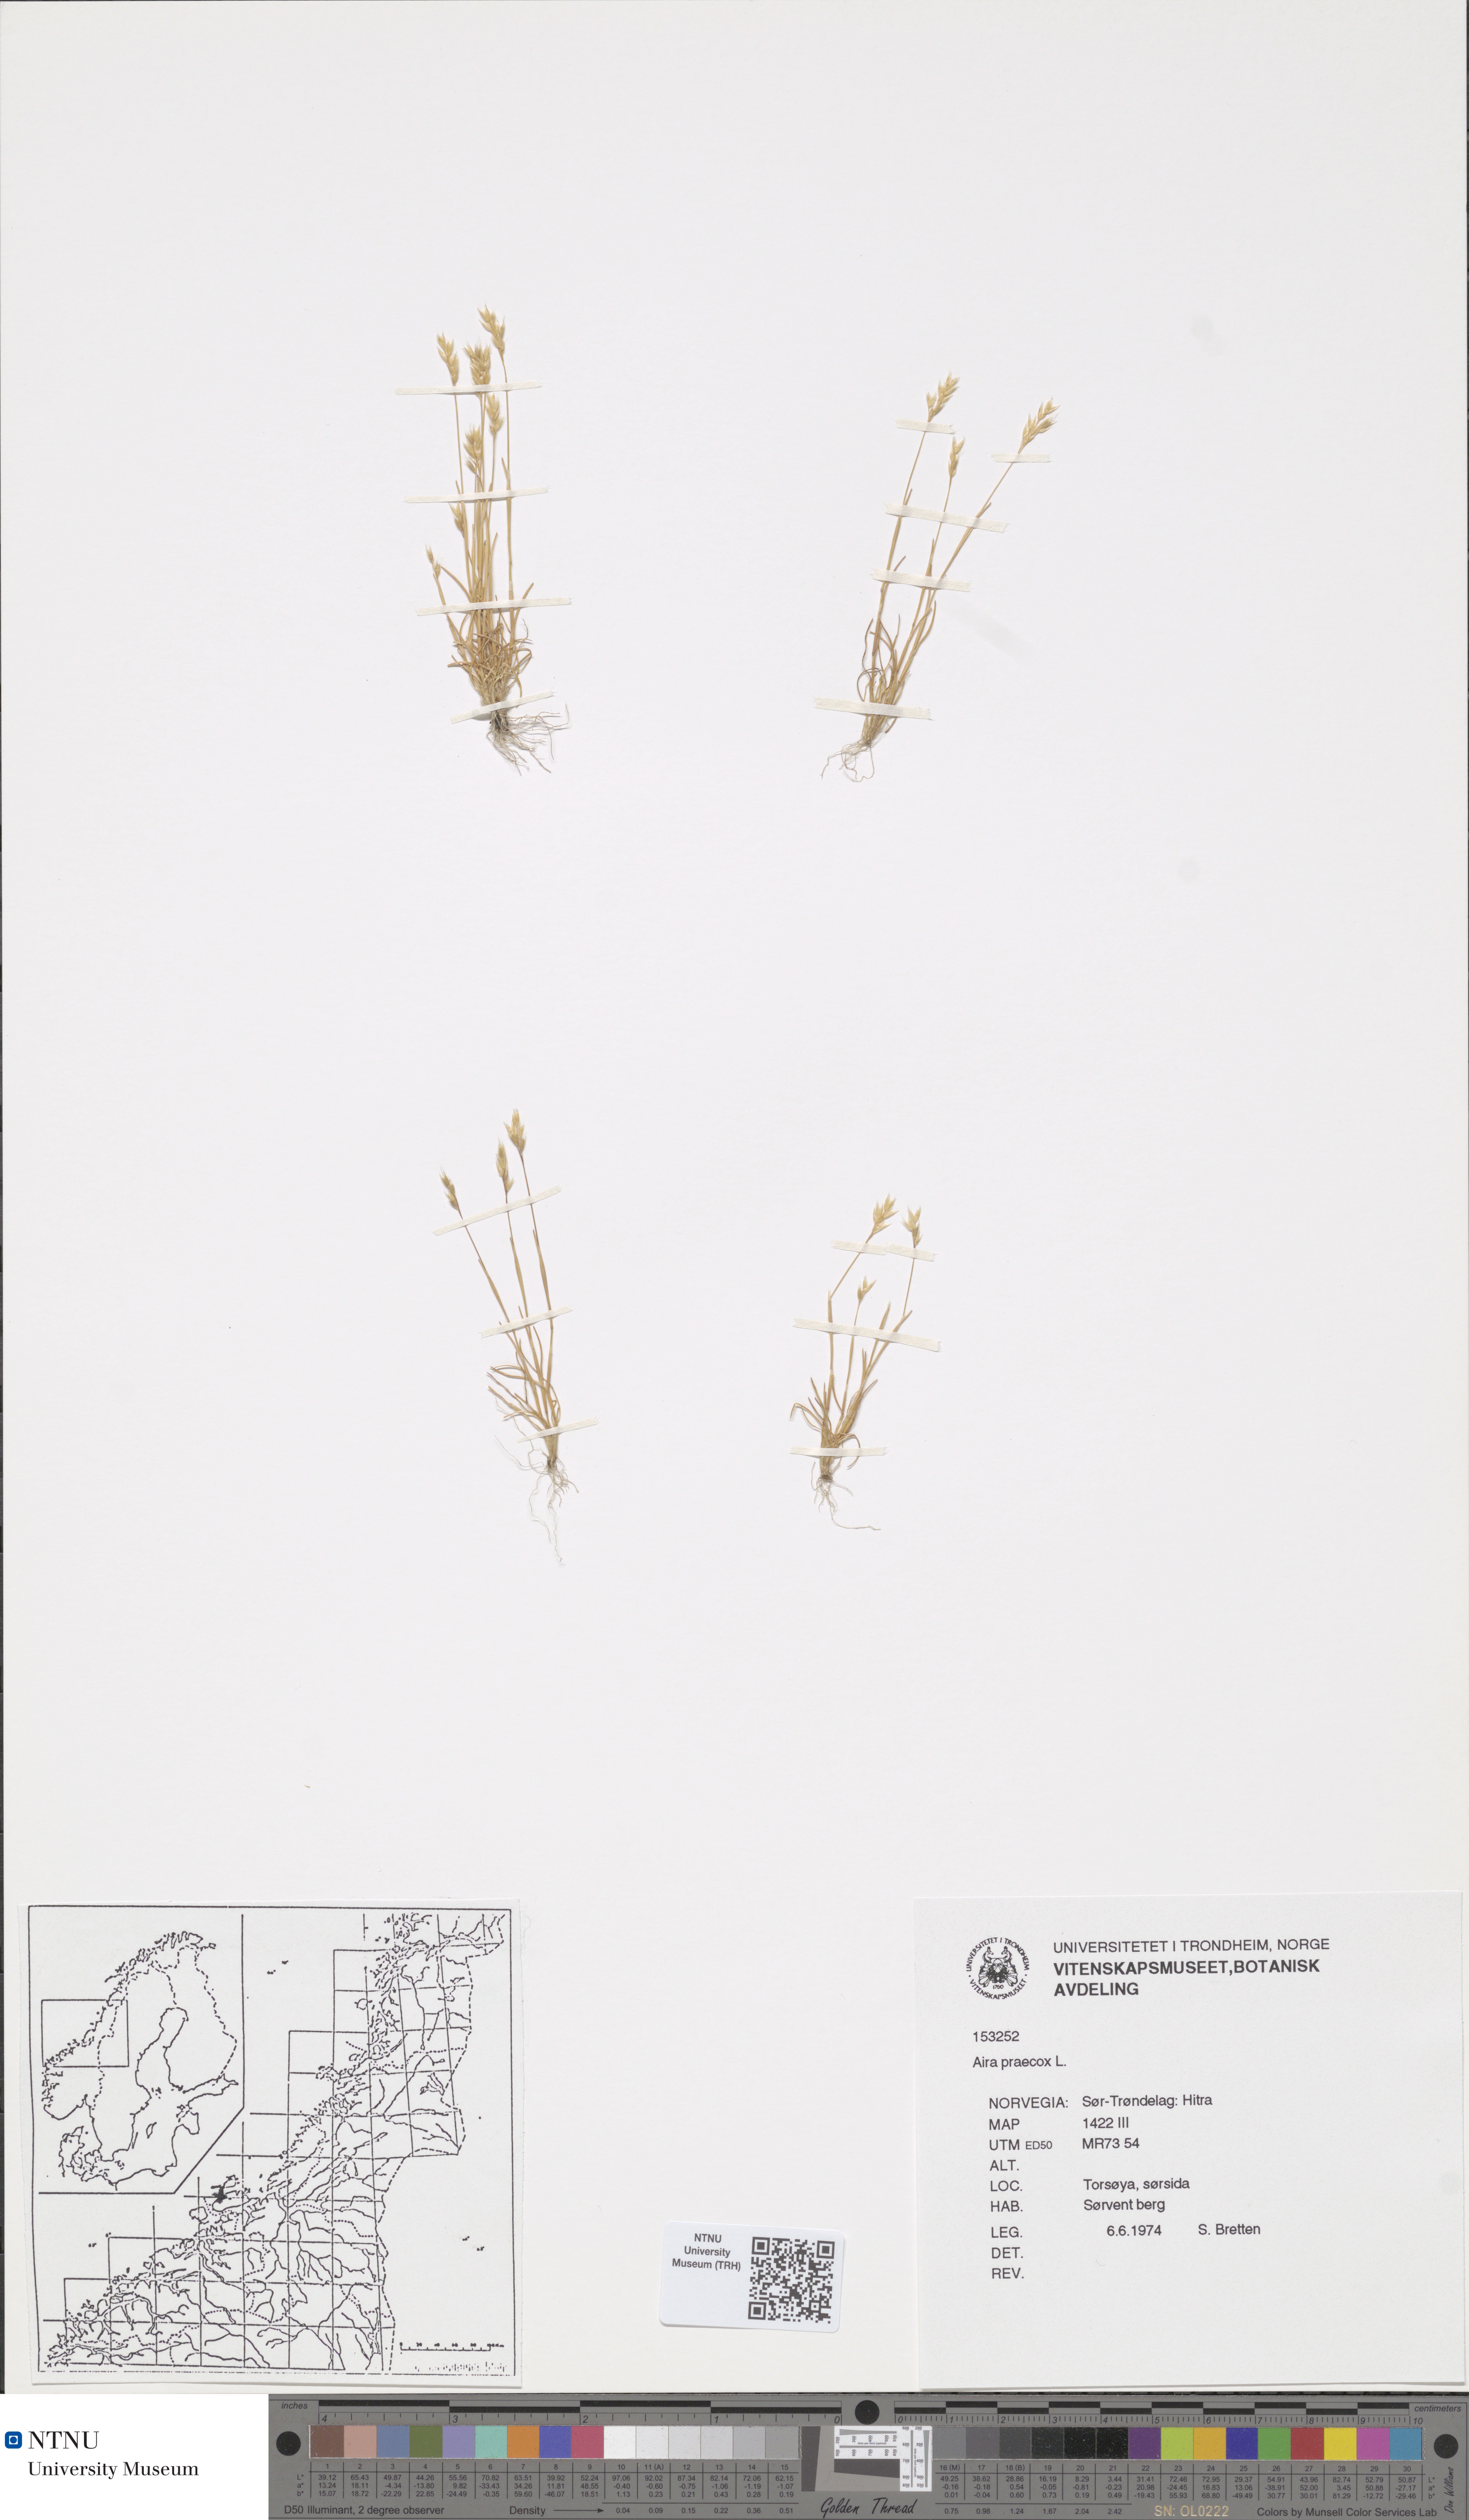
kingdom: Plantae
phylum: Tracheophyta
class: Liliopsida
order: Poales
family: Poaceae
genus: Aira
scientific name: Aira praecox
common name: Early hair-grass
